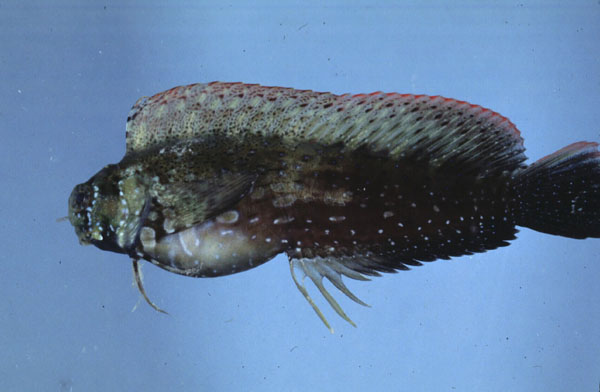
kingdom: Animalia
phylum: Chordata
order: Perciformes
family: Blenniidae
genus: Salarias
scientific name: Salarias fasciatus
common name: Jewelled blenny
